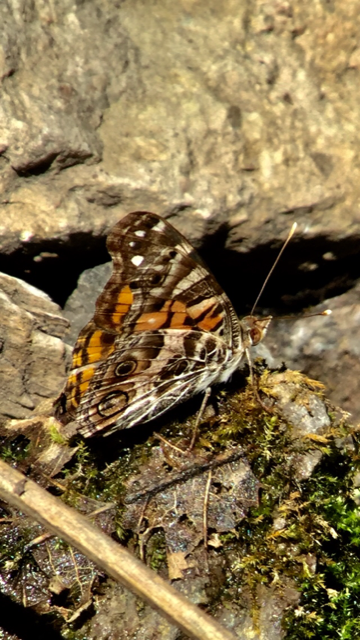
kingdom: Animalia
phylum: Arthropoda
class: Insecta
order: Lepidoptera
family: Nymphalidae
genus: Vanessa
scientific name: Vanessa virginiensis
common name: American Lady
